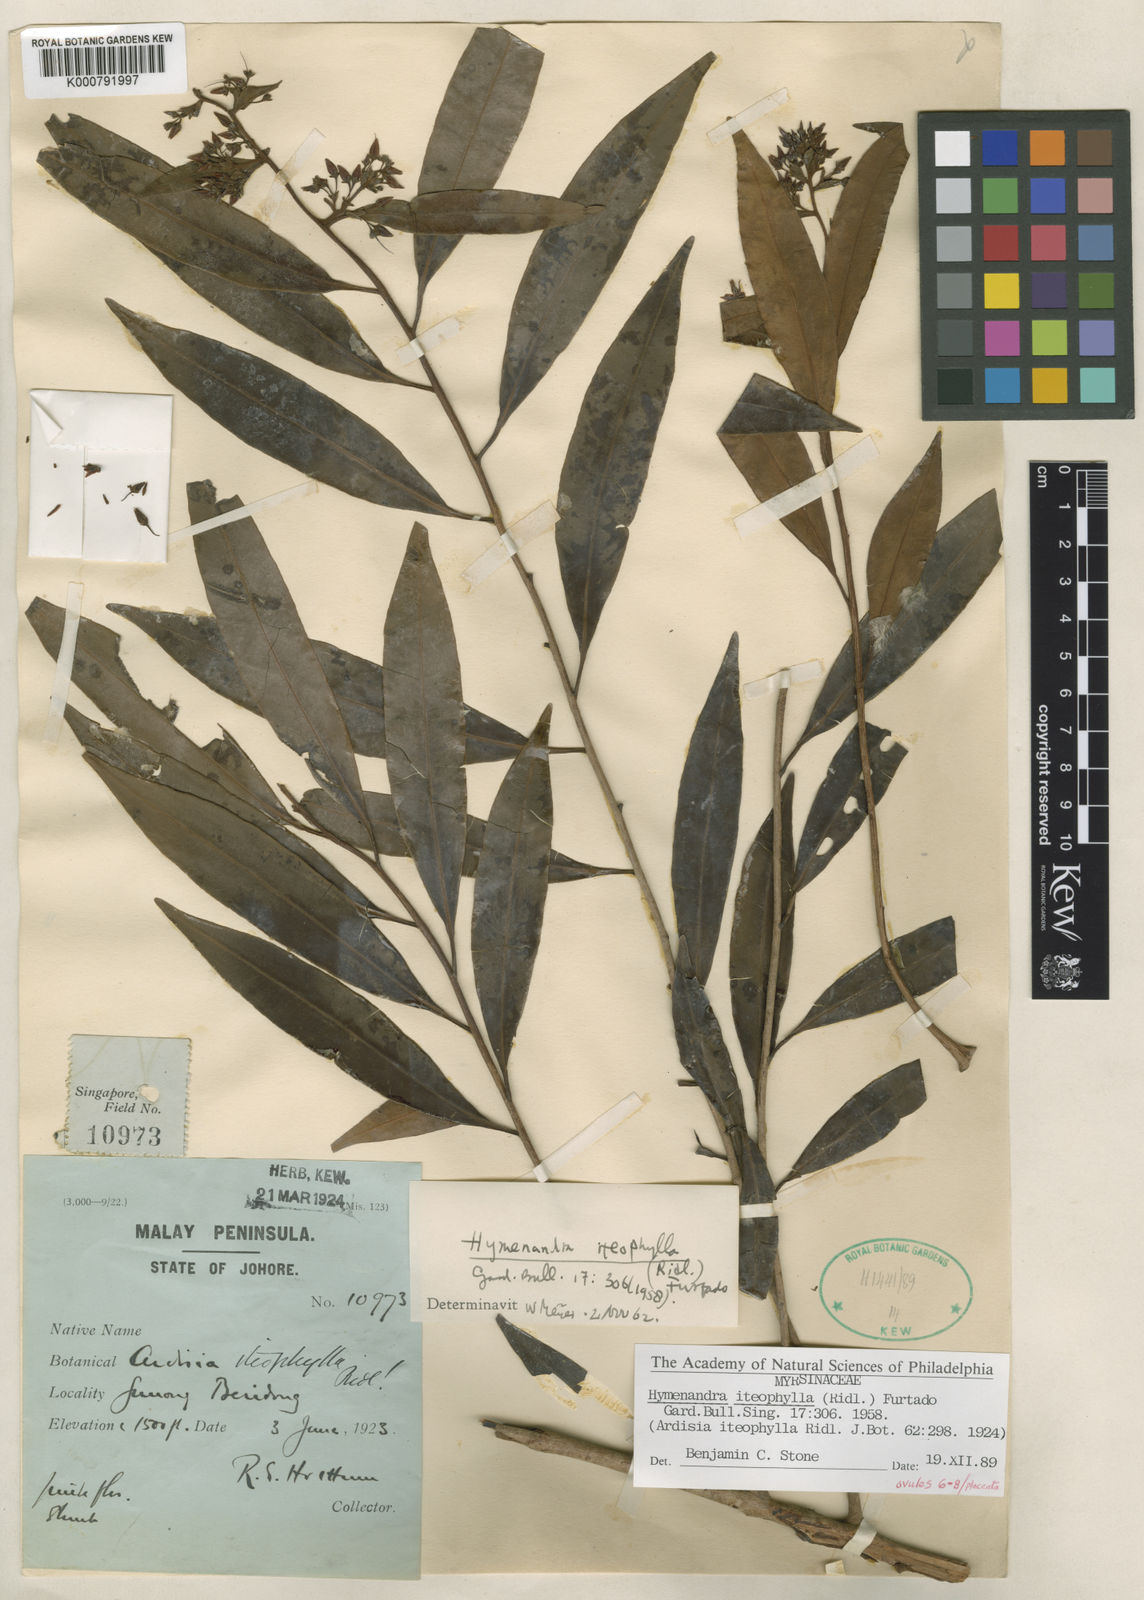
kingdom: Plantae
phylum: Tracheophyta
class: Magnoliopsida
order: Ericales
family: Primulaceae
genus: Hymenandra
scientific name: Hymenandra iteophylla
